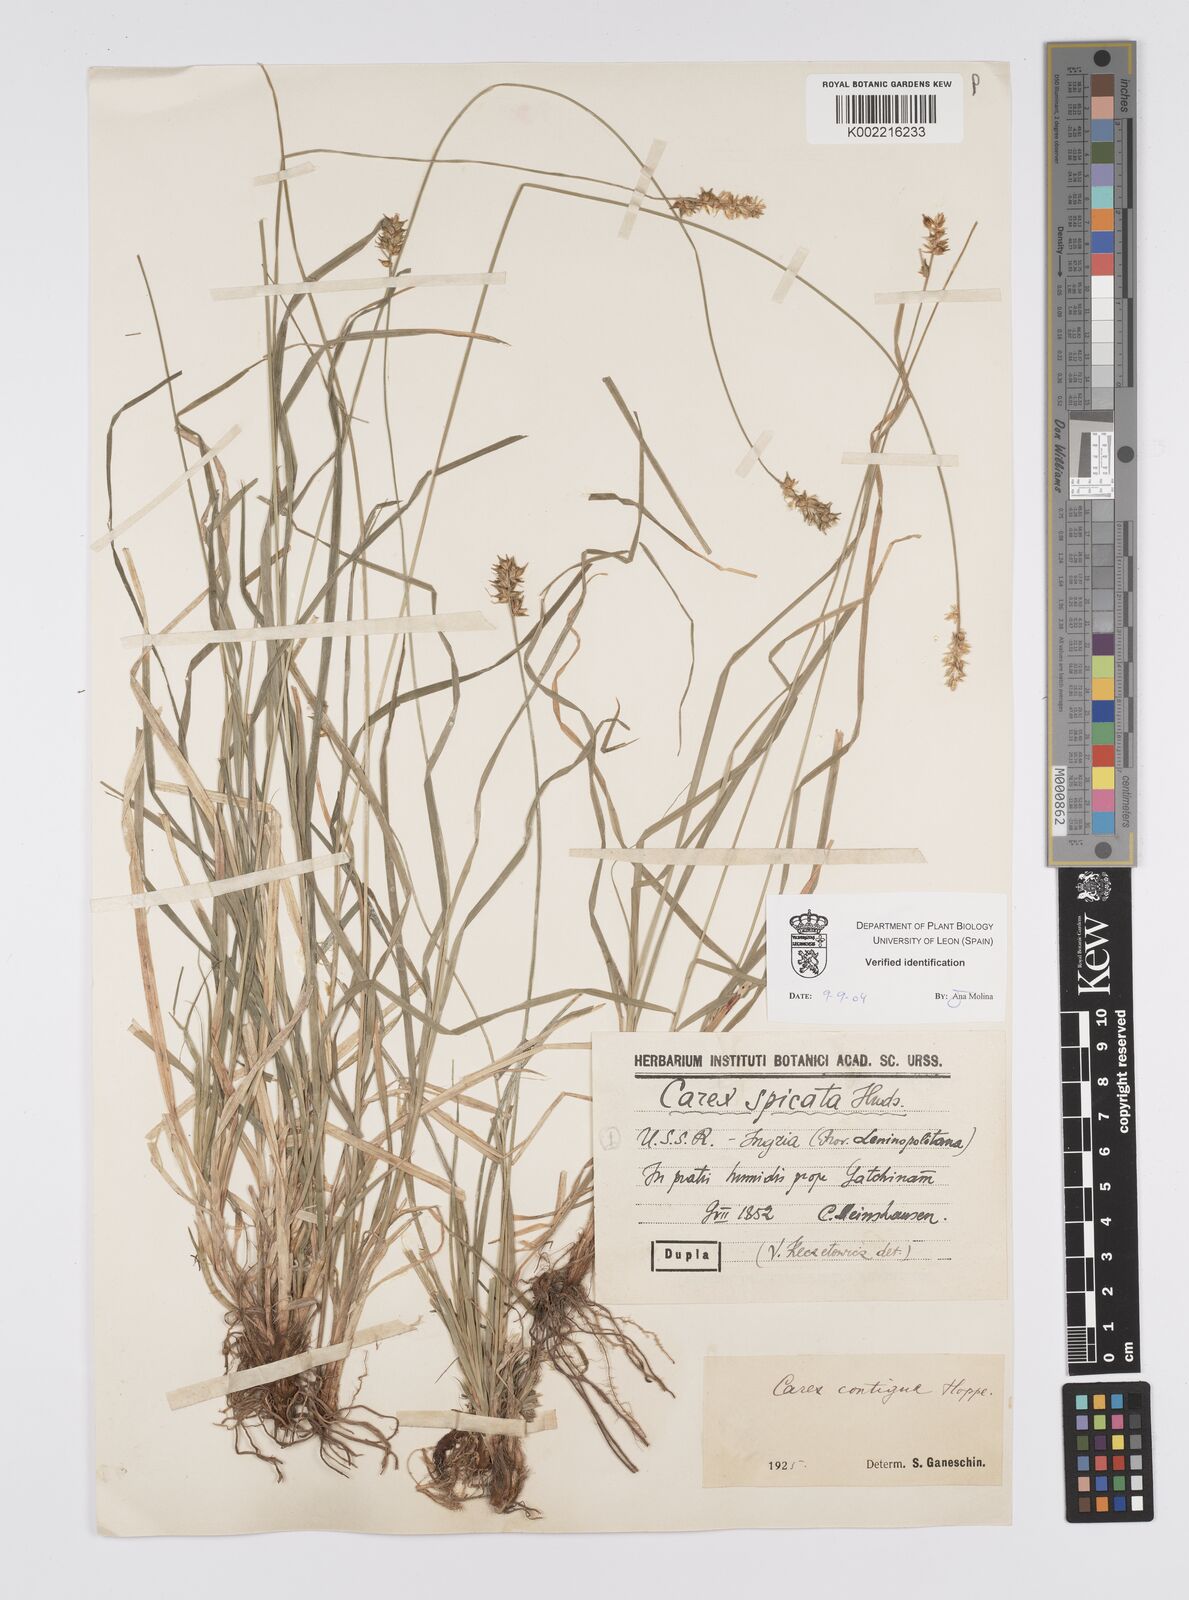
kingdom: Plantae
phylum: Tracheophyta
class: Liliopsida
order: Poales
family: Cyperaceae
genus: Carex
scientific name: Carex spicata
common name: Spiked sedge
